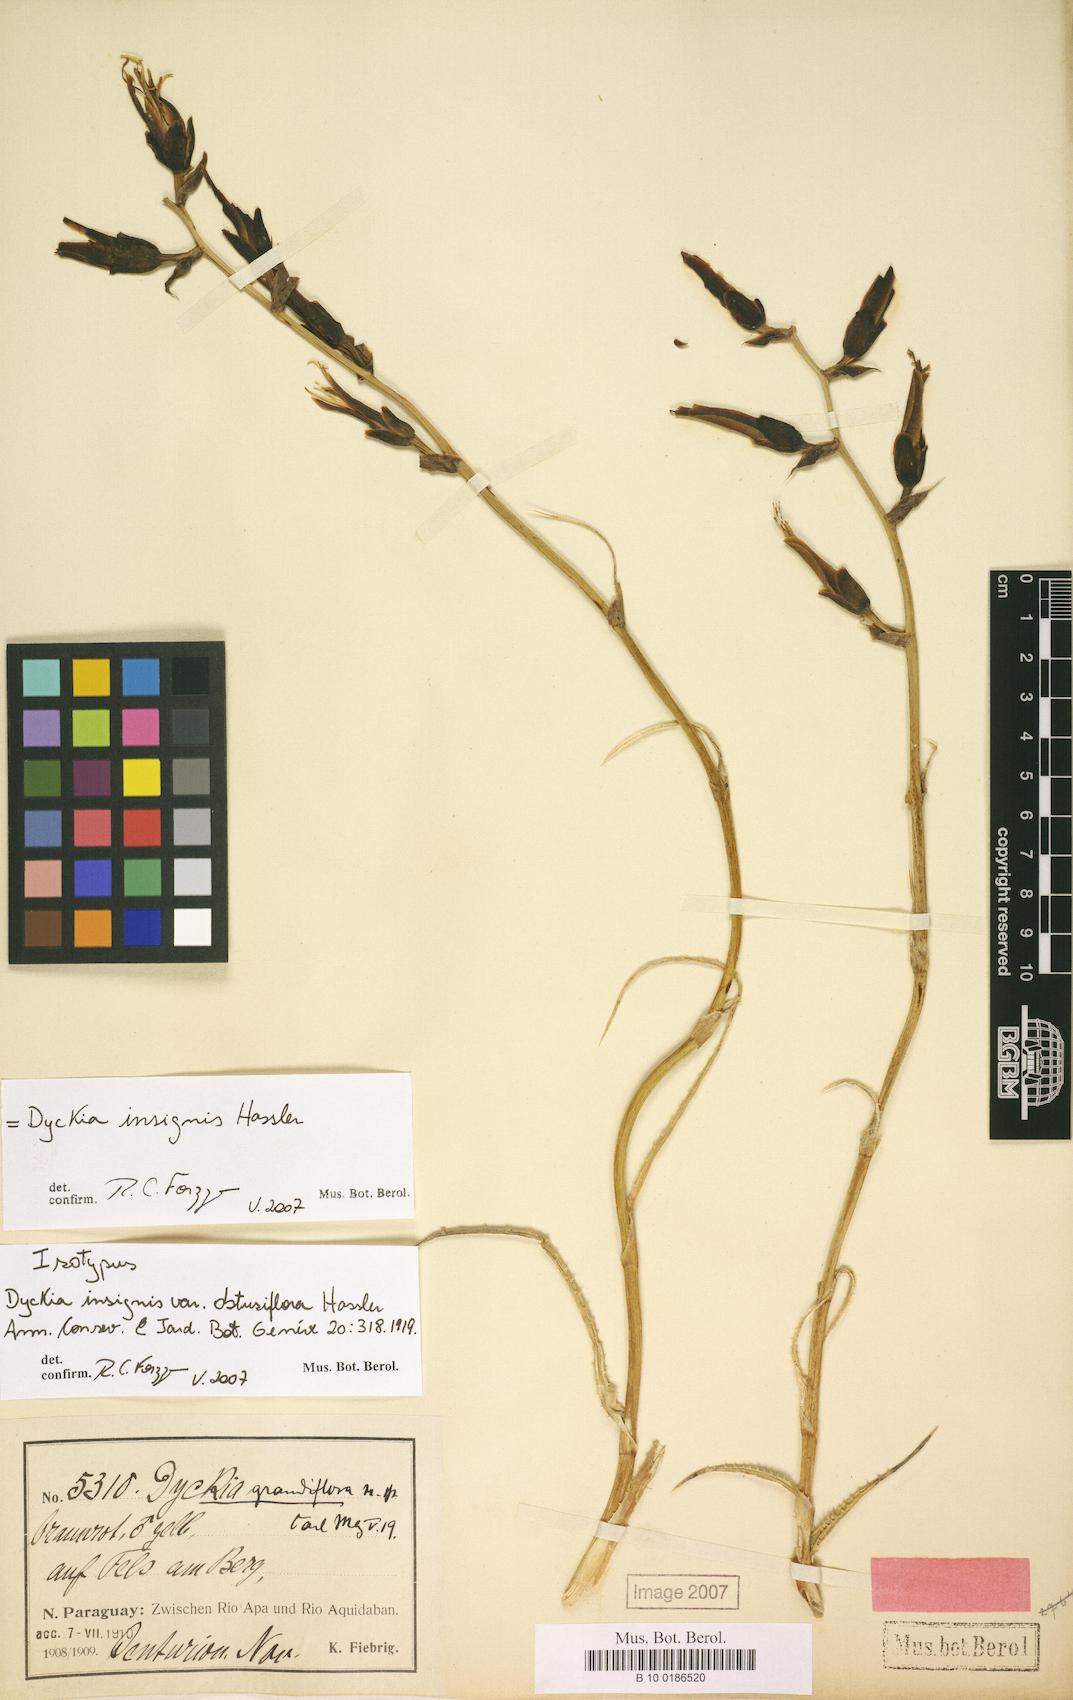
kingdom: Plantae
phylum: Tracheophyta
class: Liliopsida
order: Poales
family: Bromeliaceae
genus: Dyckia
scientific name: Dyckia insignis
